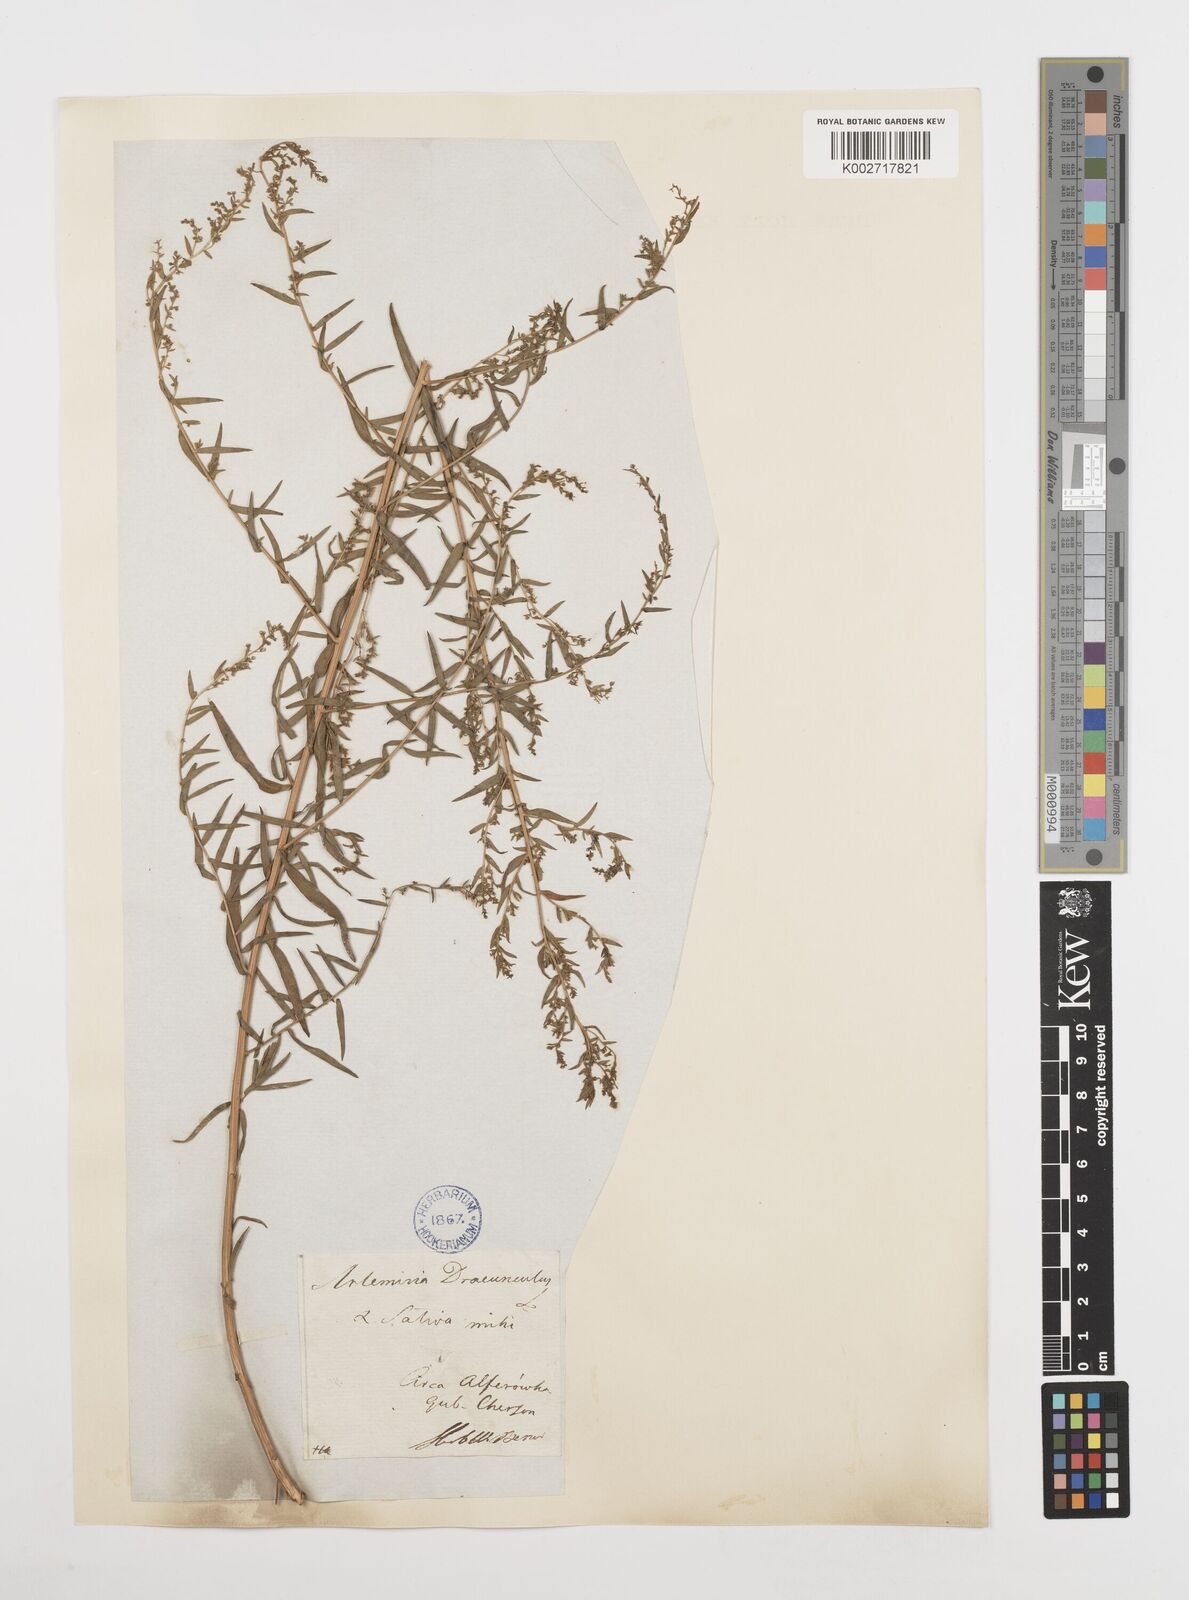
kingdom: Plantae
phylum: Tracheophyta
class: Magnoliopsida
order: Asterales
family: Asteraceae
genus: Artemisia
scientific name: Artemisia dracunculus
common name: Tarragon
